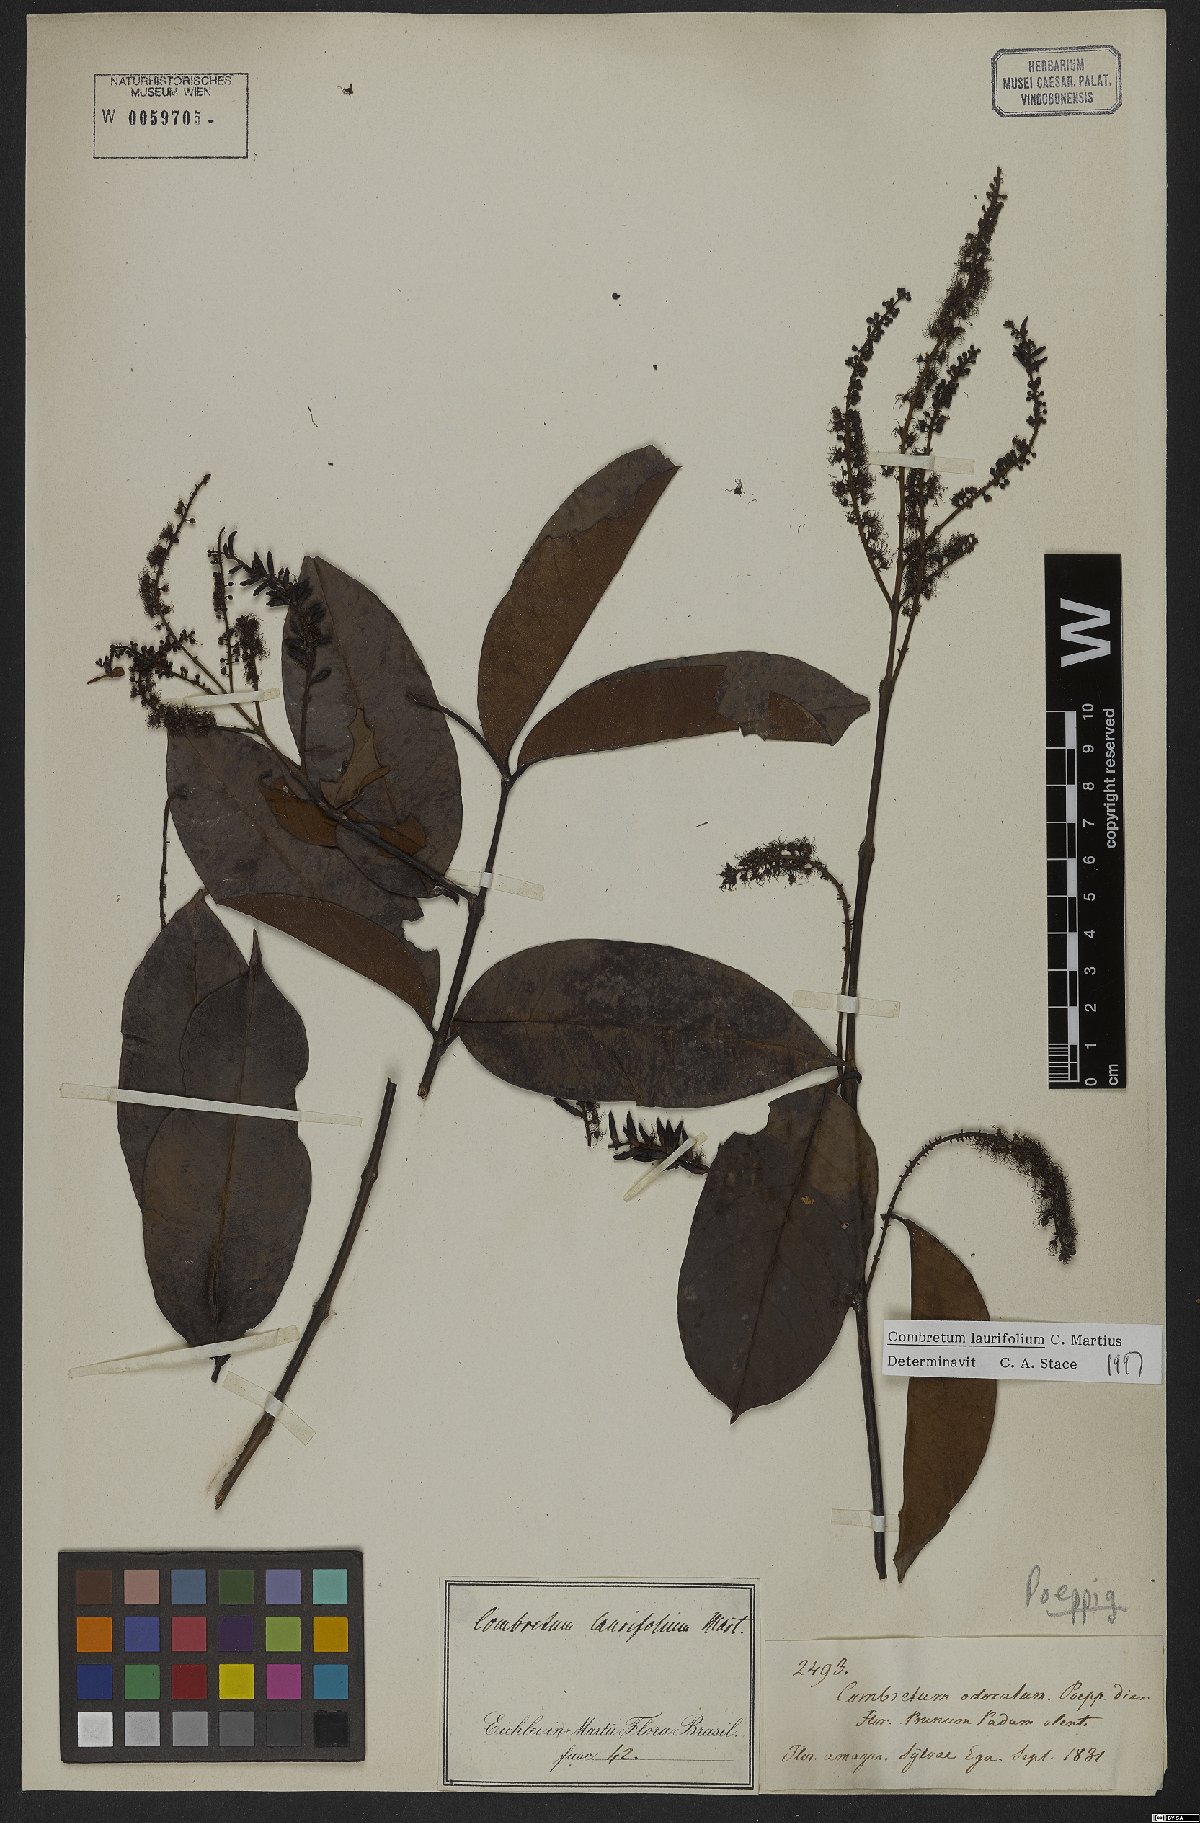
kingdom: Plantae
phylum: Tracheophyta
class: Magnoliopsida
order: Myrtales
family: Combretaceae
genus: Combretum
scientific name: Combretum coriifolium
